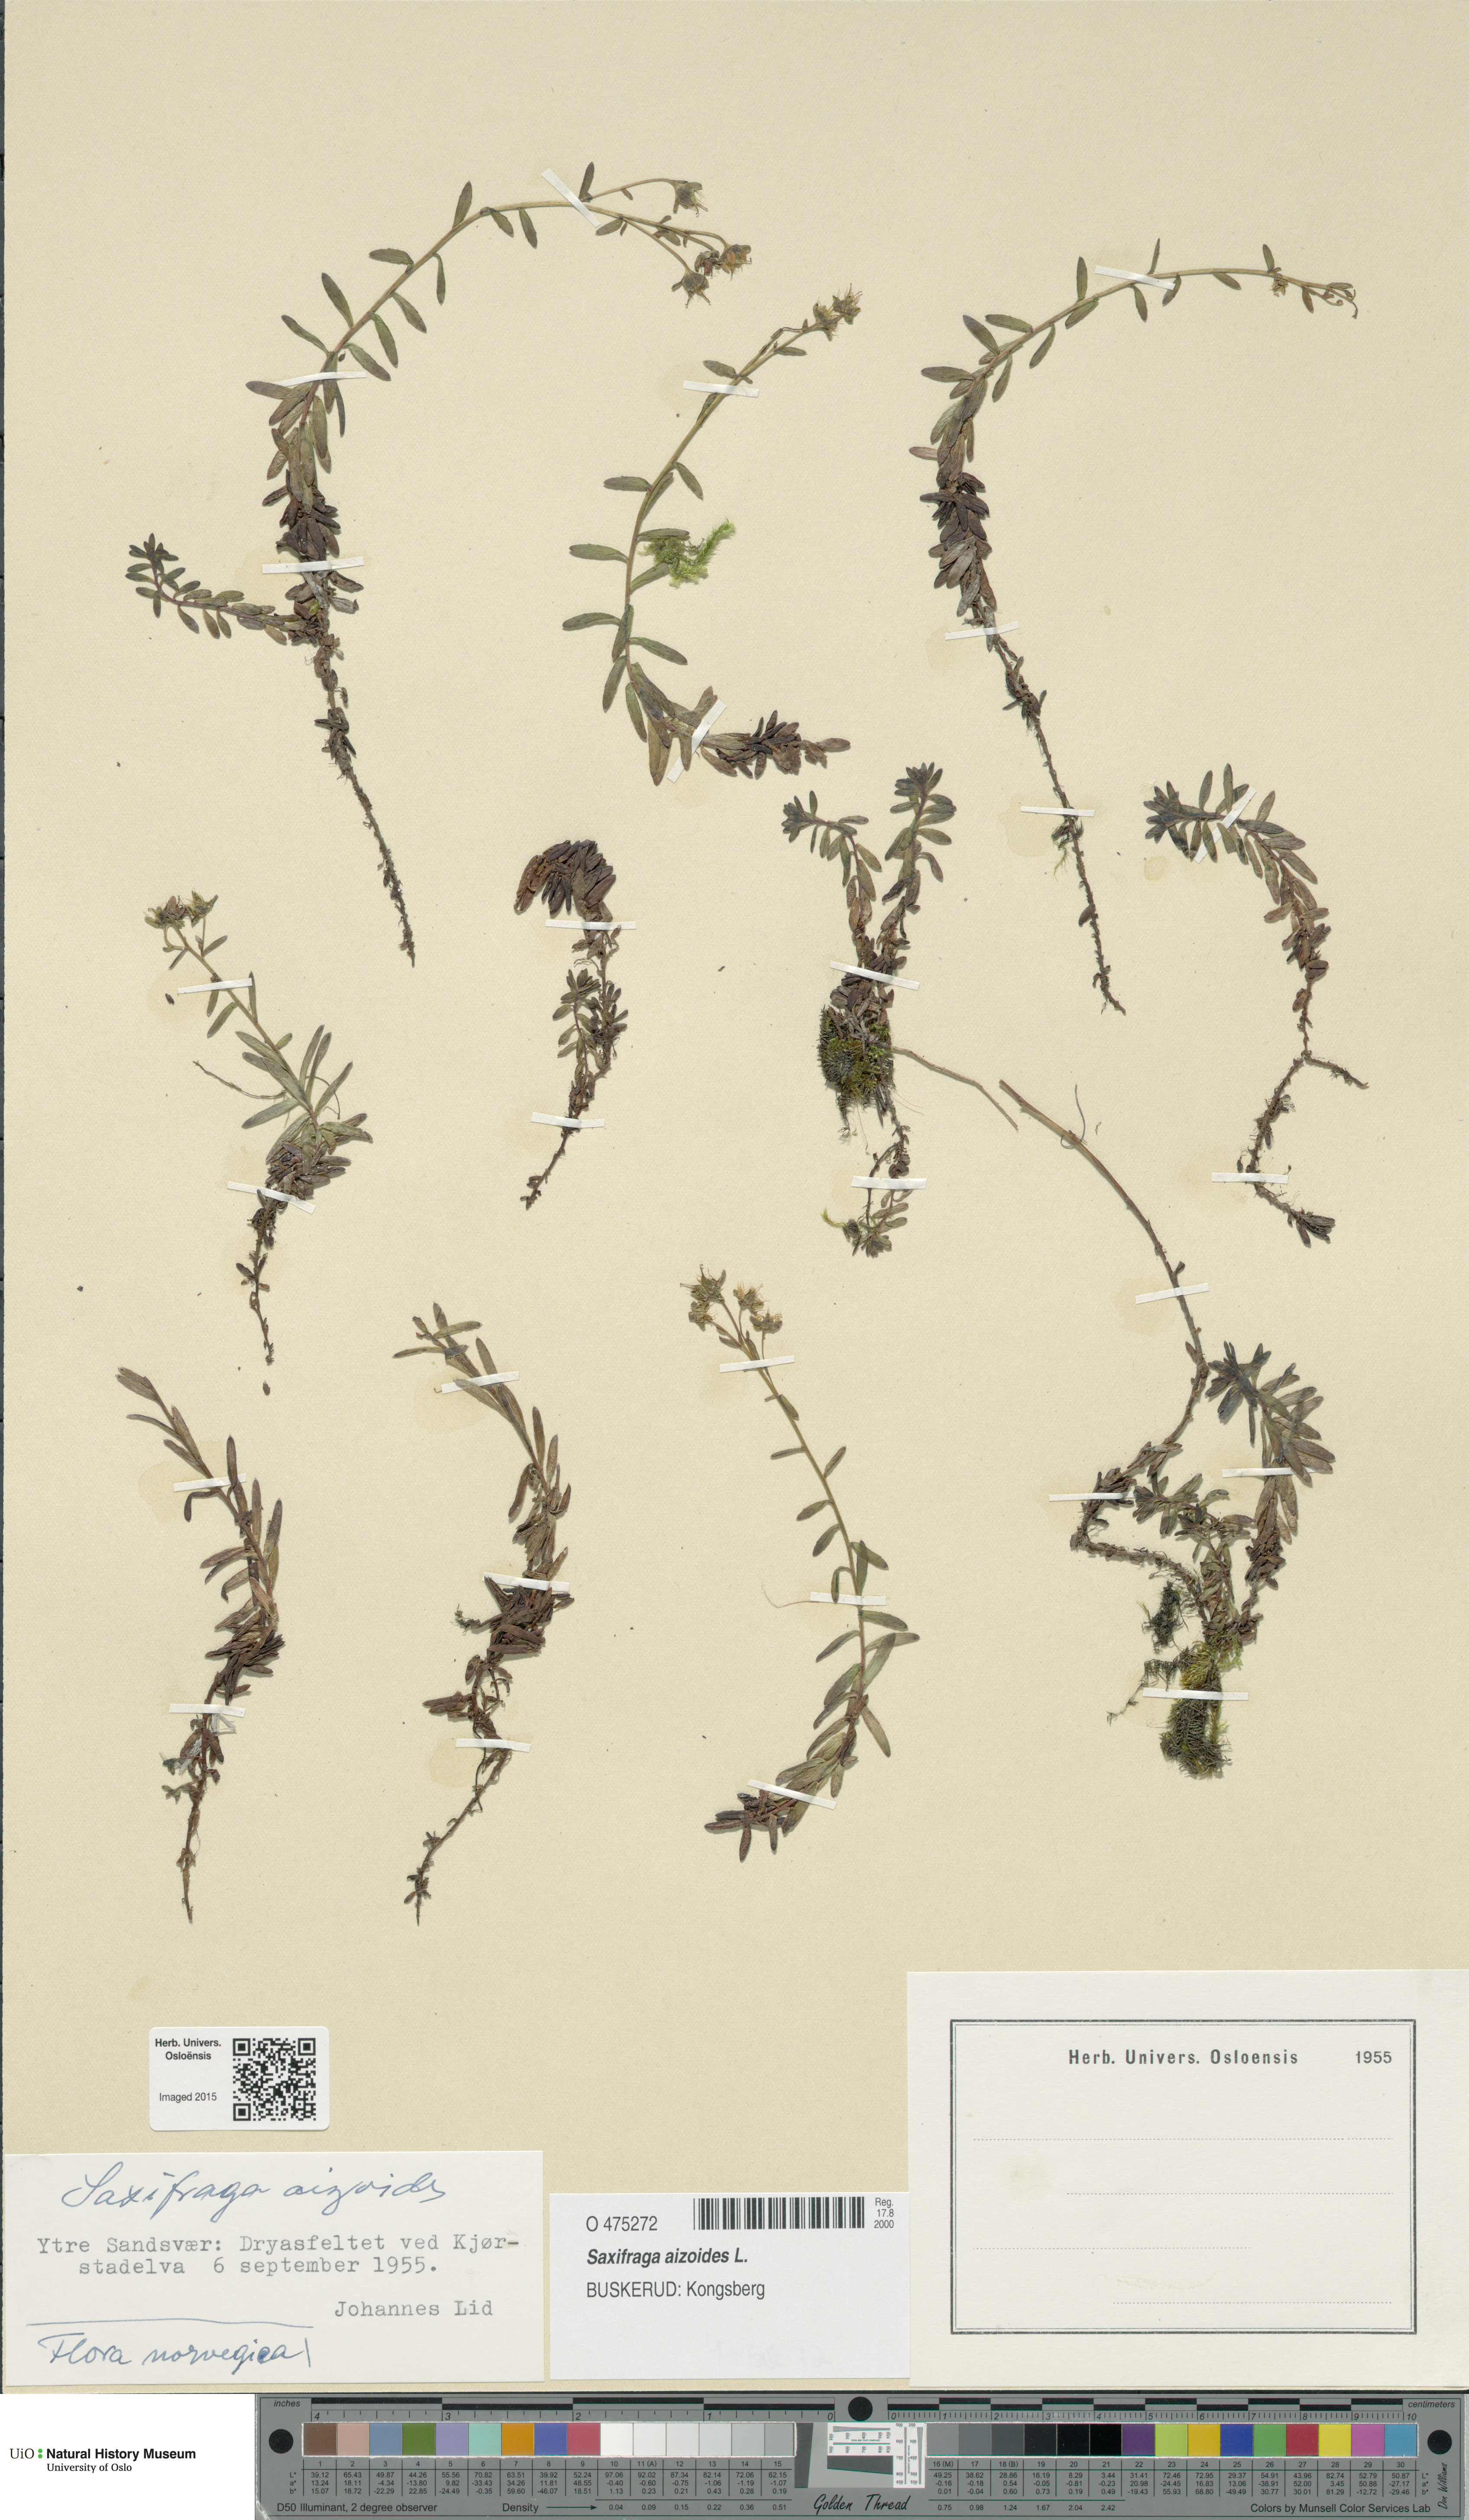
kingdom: Plantae
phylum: Tracheophyta
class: Magnoliopsida
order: Saxifragales
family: Saxifragaceae
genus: Saxifraga
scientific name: Saxifraga aizoides
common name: Yellow mountain saxifrage
